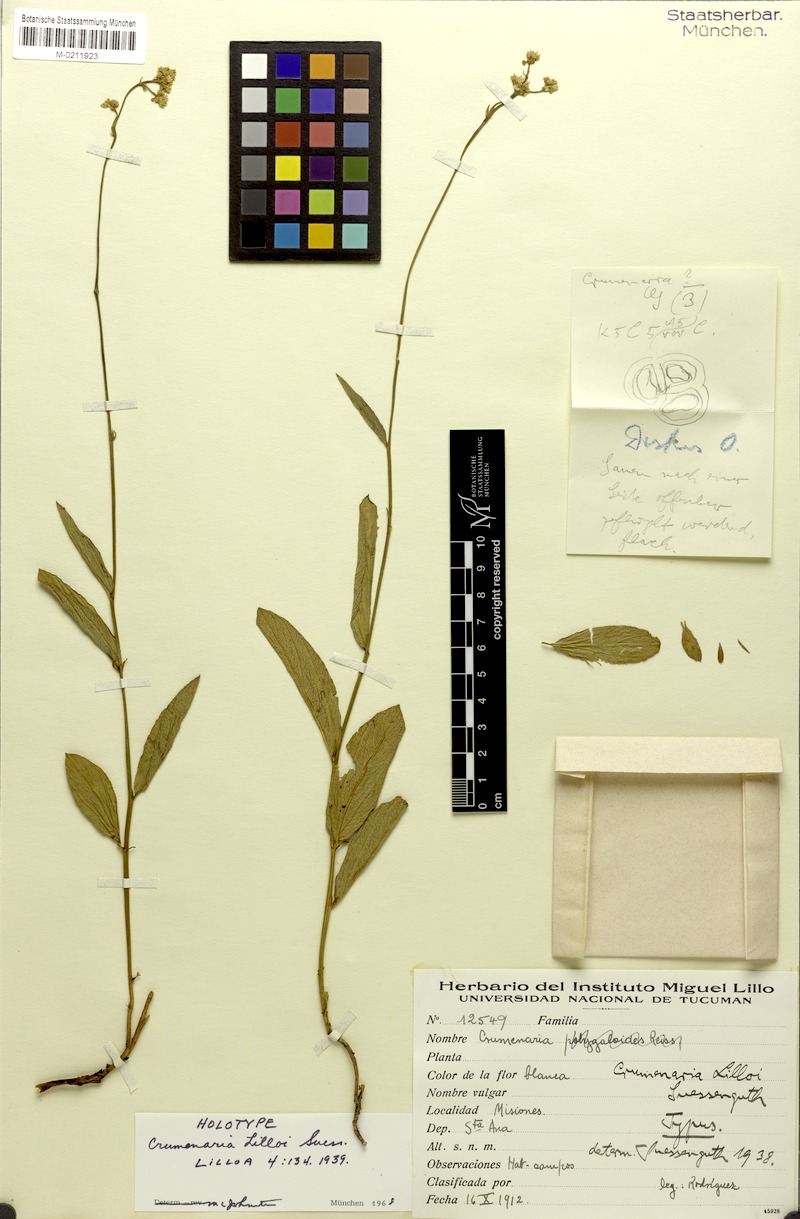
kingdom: Plantae
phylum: Tracheophyta
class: Magnoliopsida
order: Rosales
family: Rhamnaceae
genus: Crumenaria
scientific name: Crumenaria lilloi
